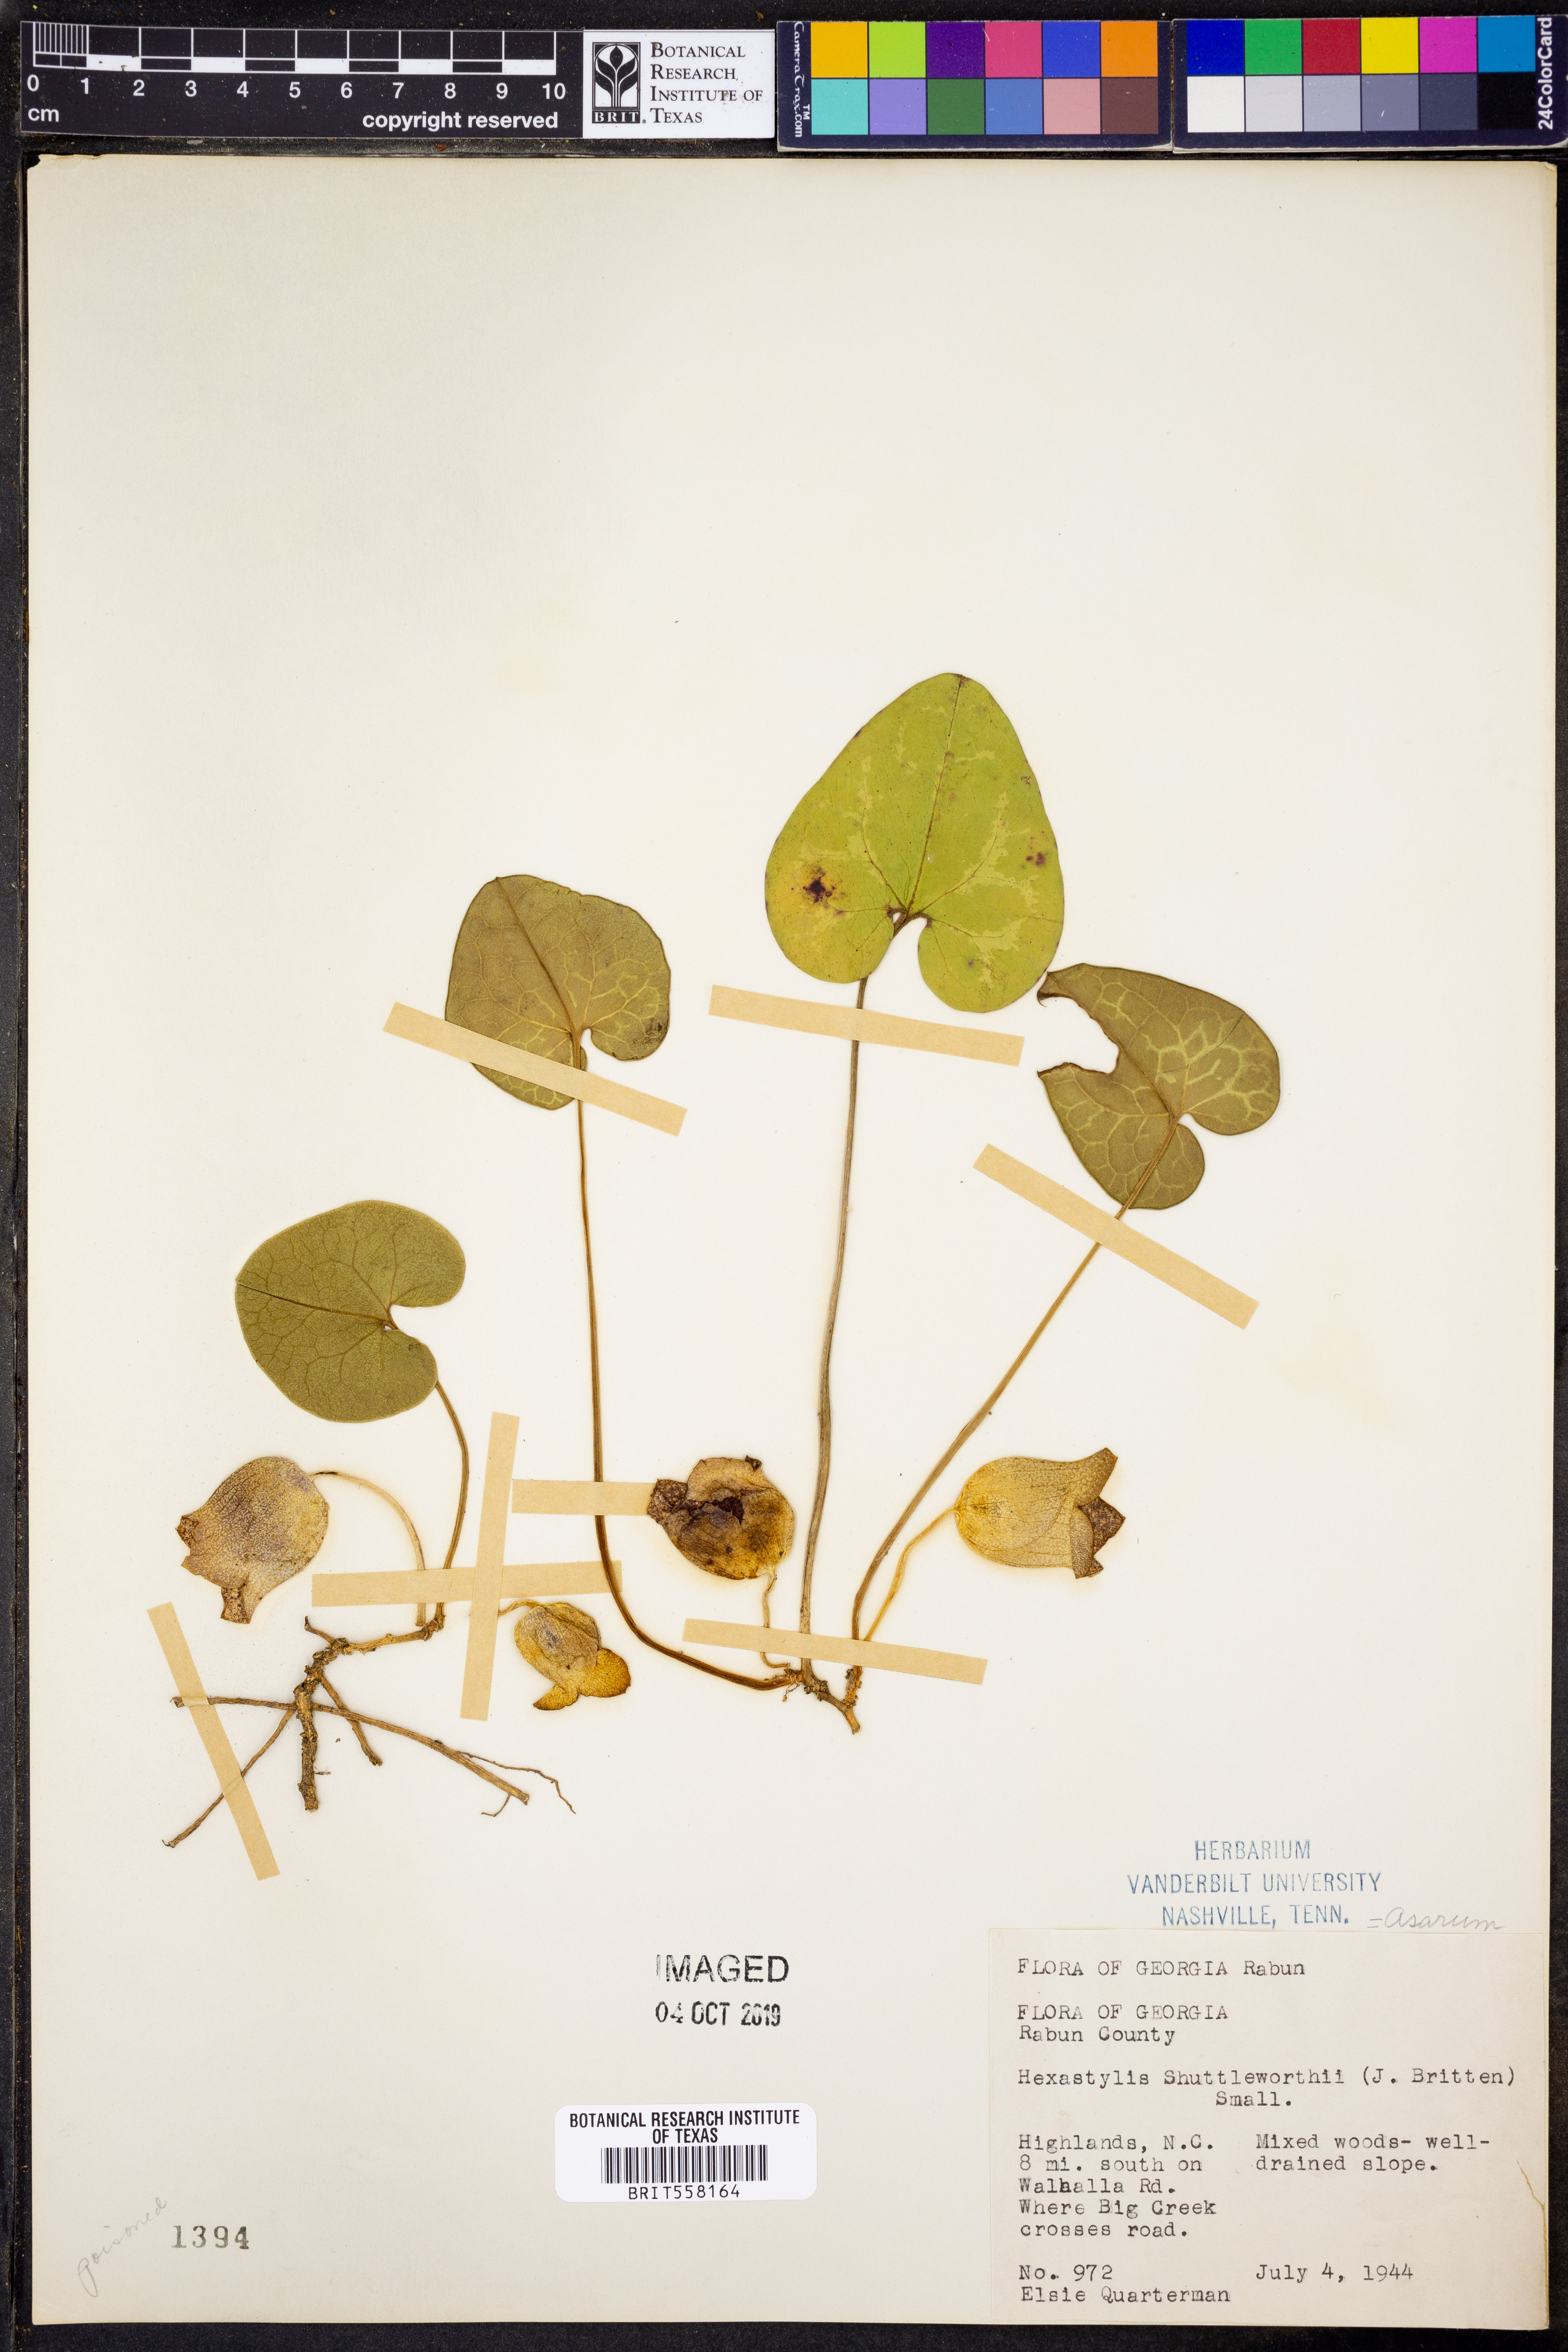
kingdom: Plantae
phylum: Tracheophyta
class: Magnoliopsida
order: Piperales
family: Aristolochiaceae
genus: Hexastylis
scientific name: Hexastylis shuttleworthii
